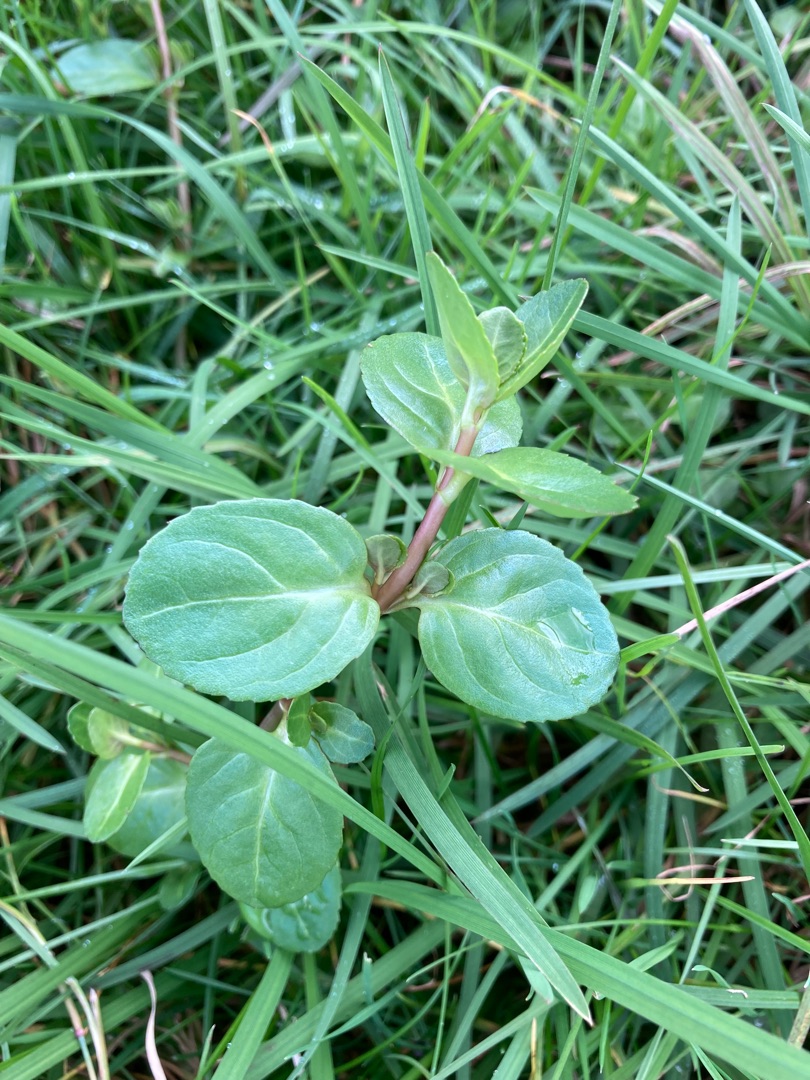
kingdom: Plantae
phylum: Tracheophyta
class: Magnoliopsida
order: Lamiales
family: Plantaginaceae
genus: Veronica
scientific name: Veronica beccabunga
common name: Tykbladet ærenpris
